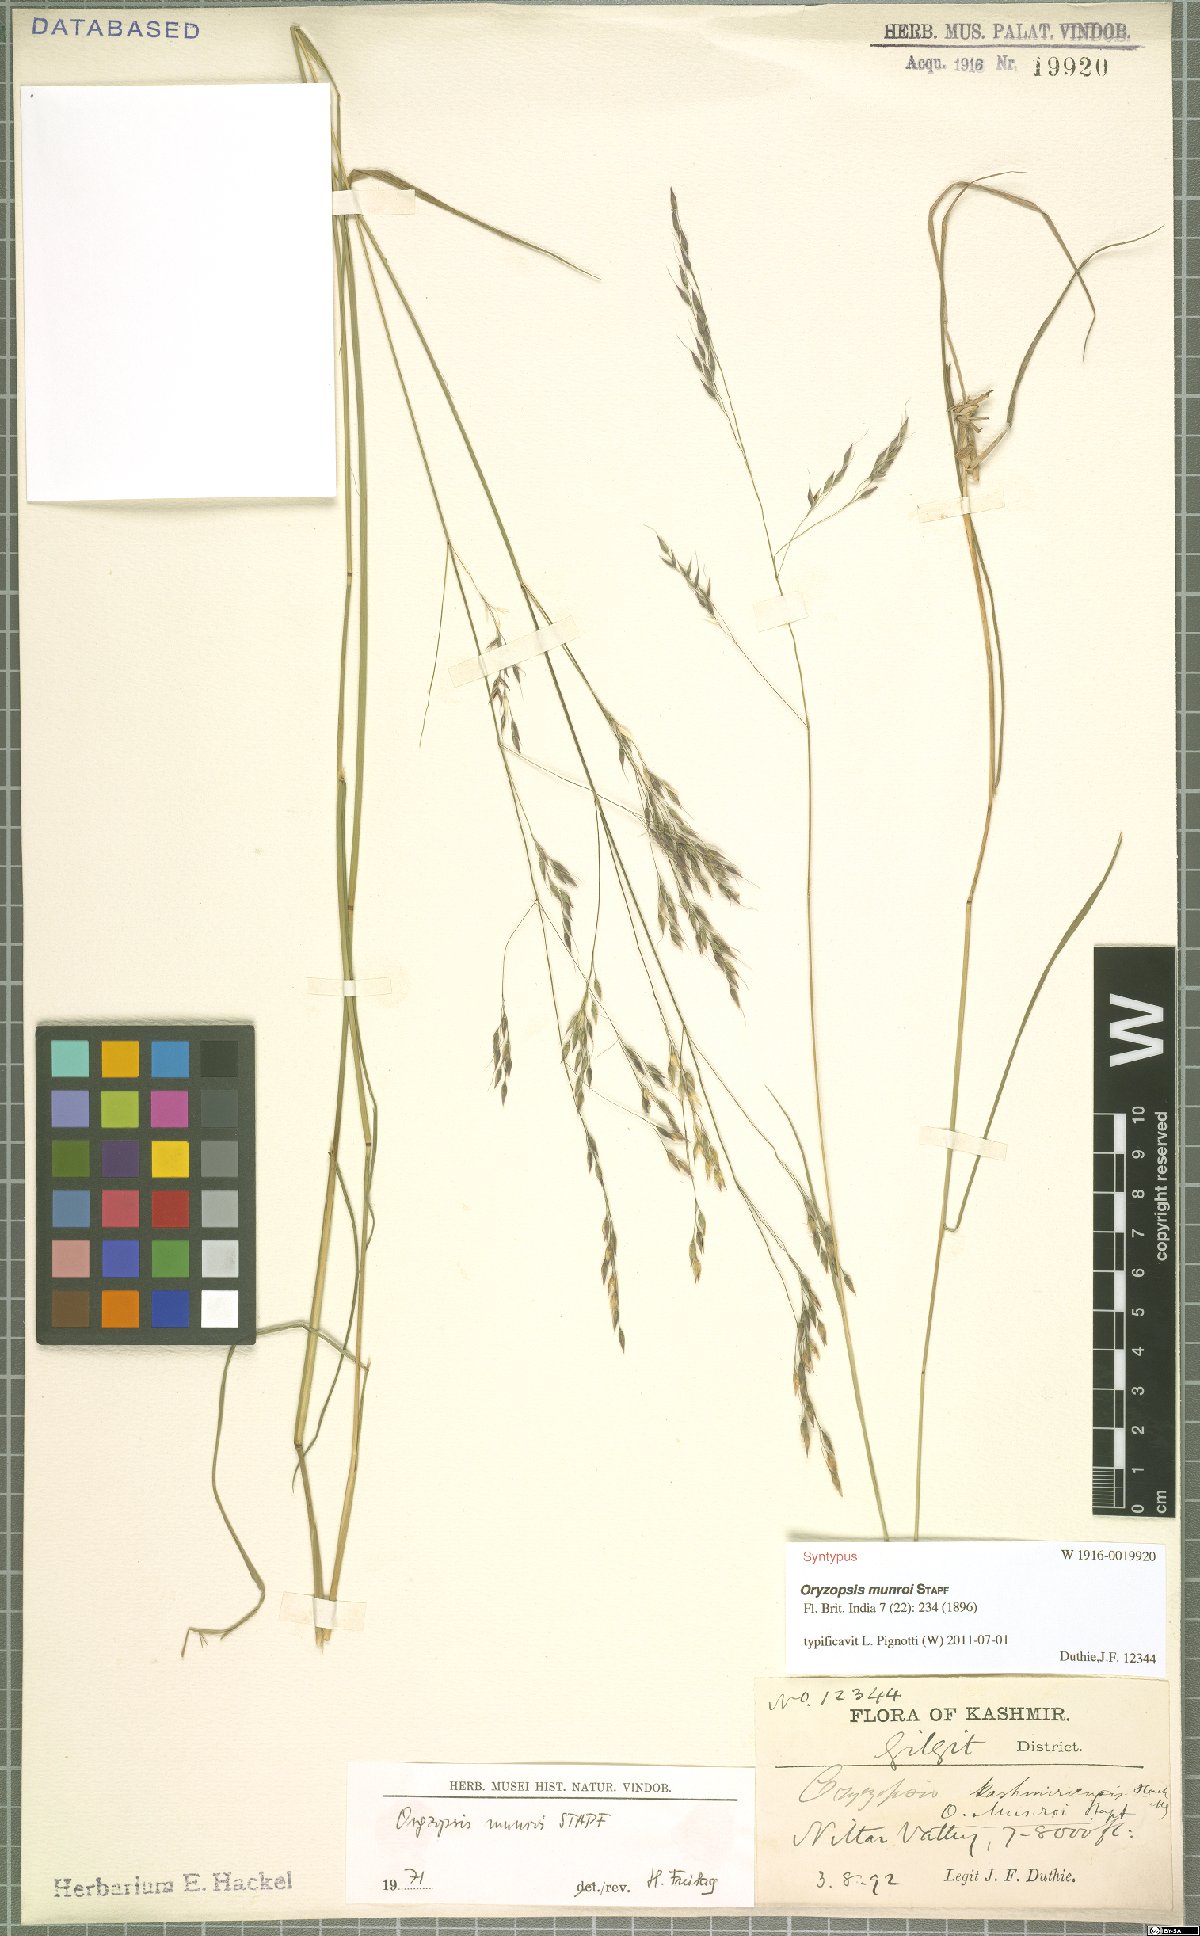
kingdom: Plantae
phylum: Tracheophyta
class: Liliopsida
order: Poales
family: Poaceae
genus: Piptatherum
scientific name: Piptatherum munroi
